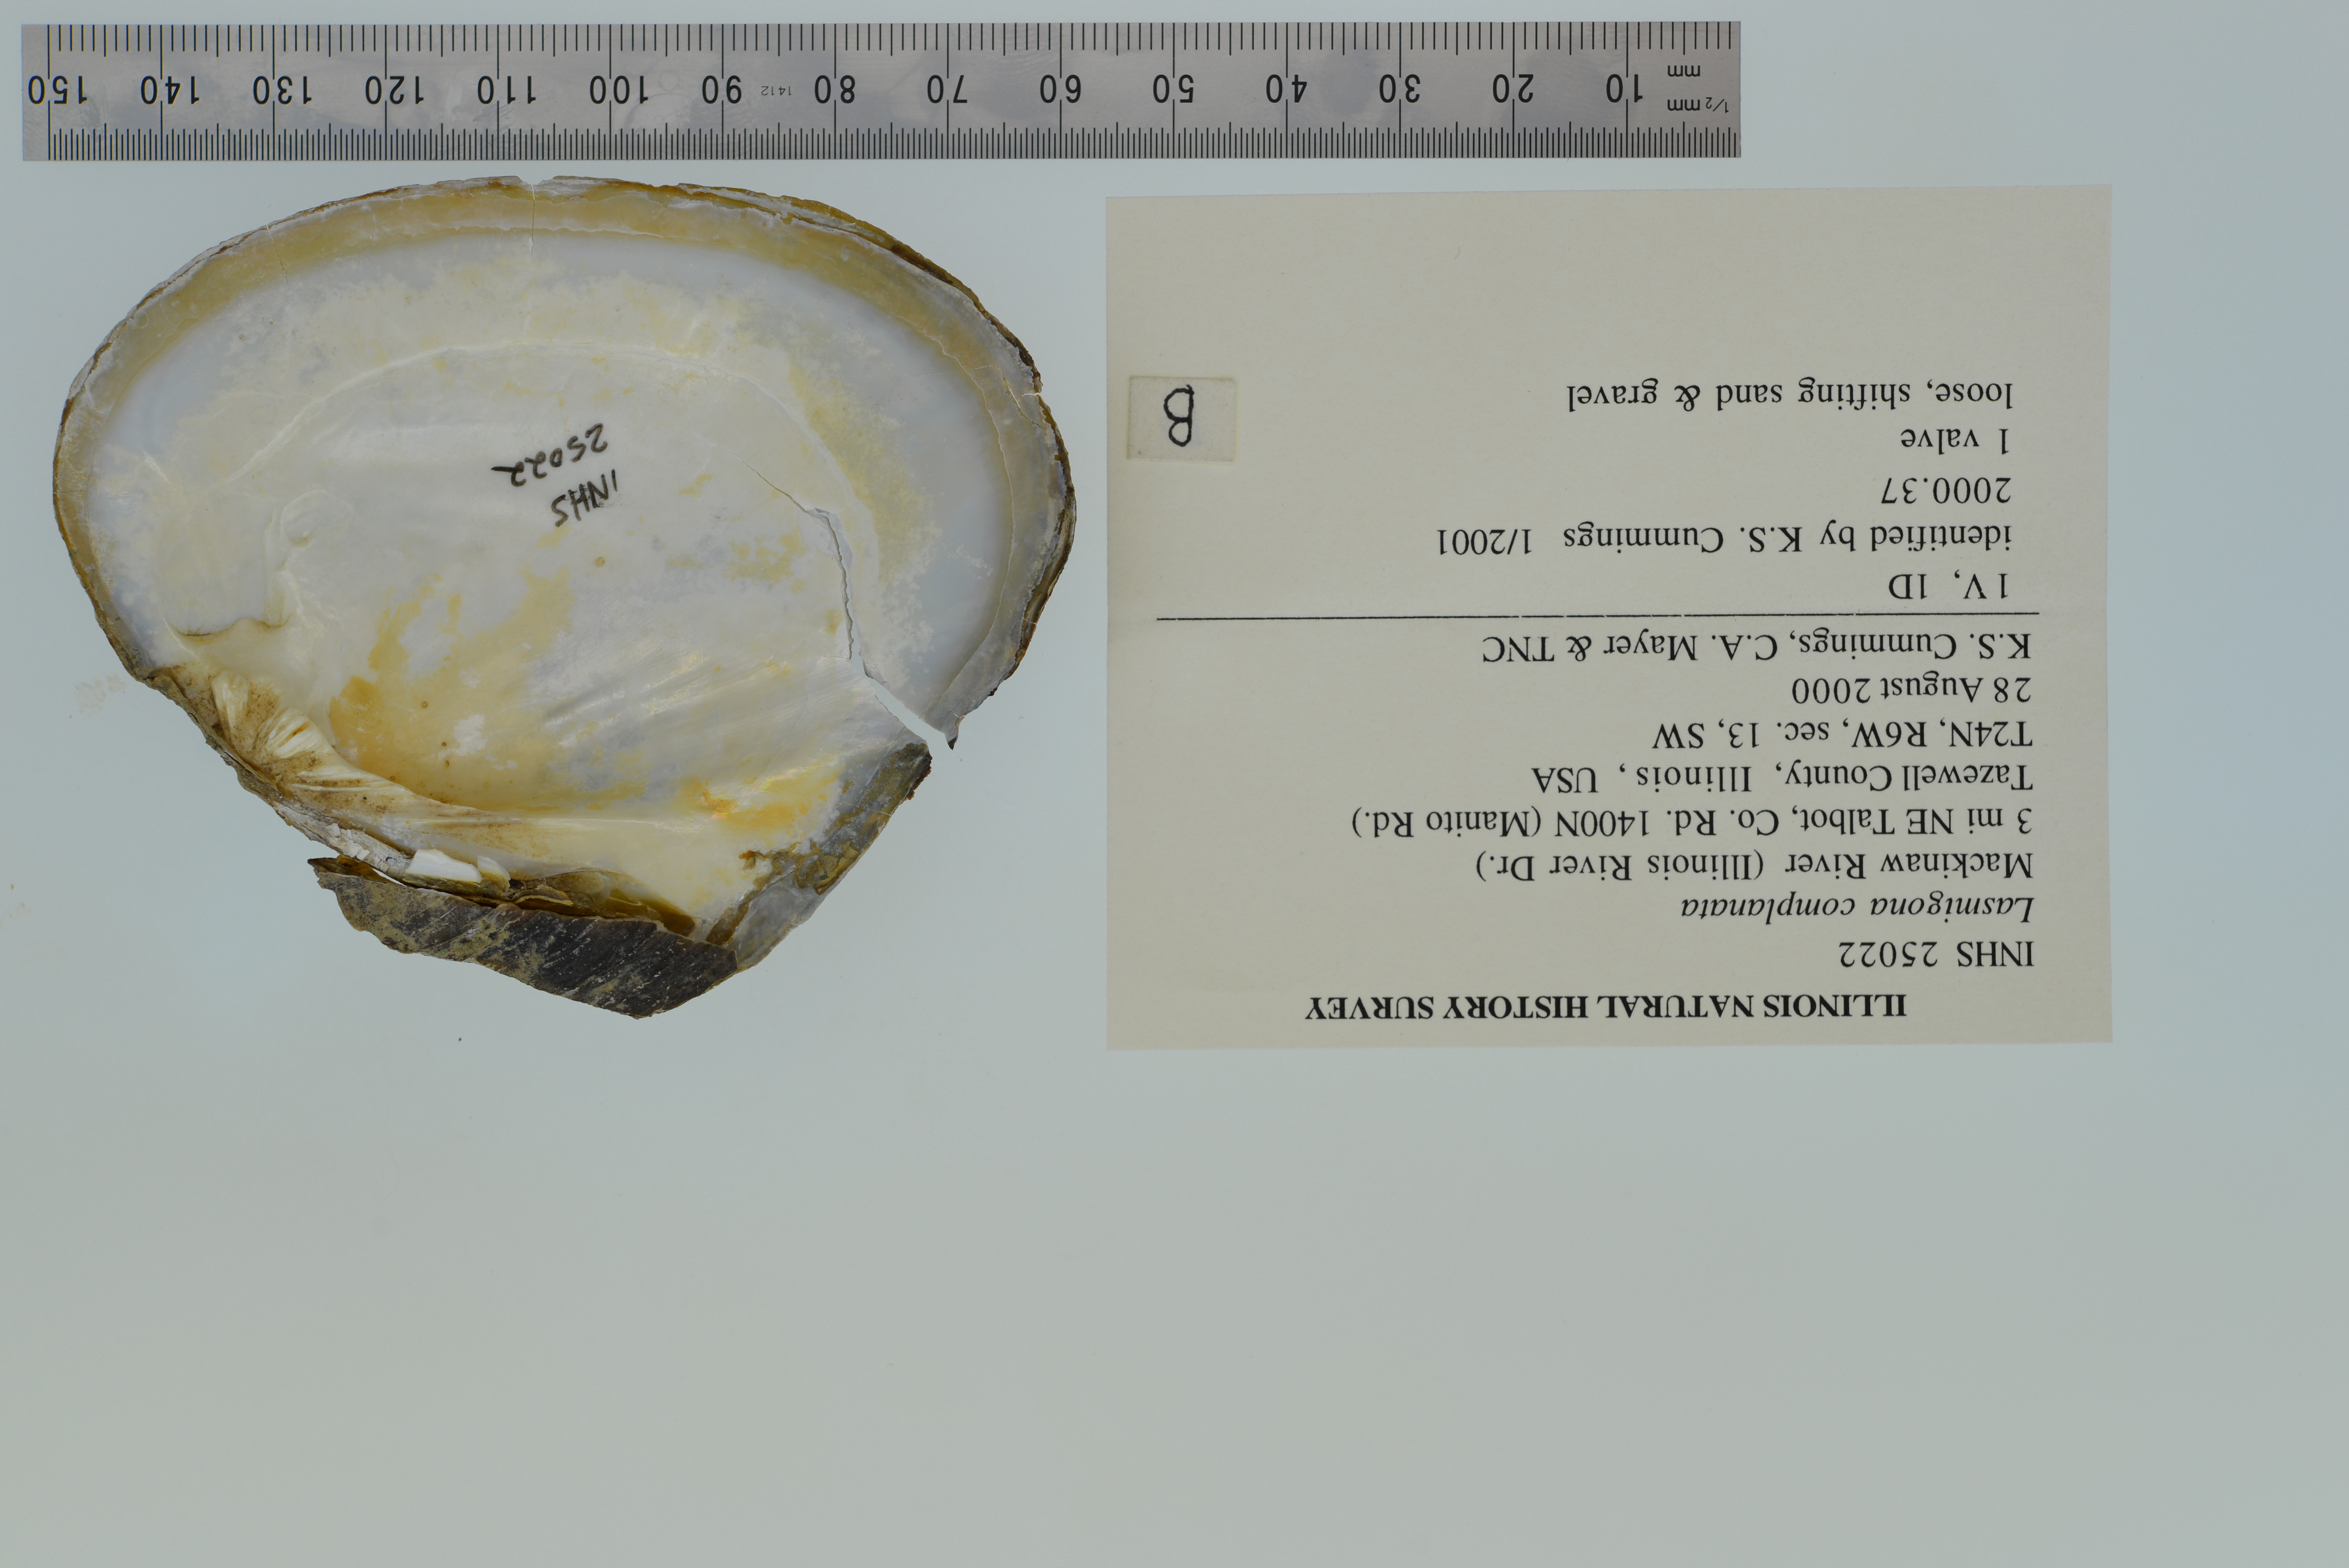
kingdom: Animalia
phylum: Mollusca
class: Bivalvia
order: Unionida
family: Unionidae
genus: Lasmigona
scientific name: Lasmigona complanata
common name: White heelsplitter
